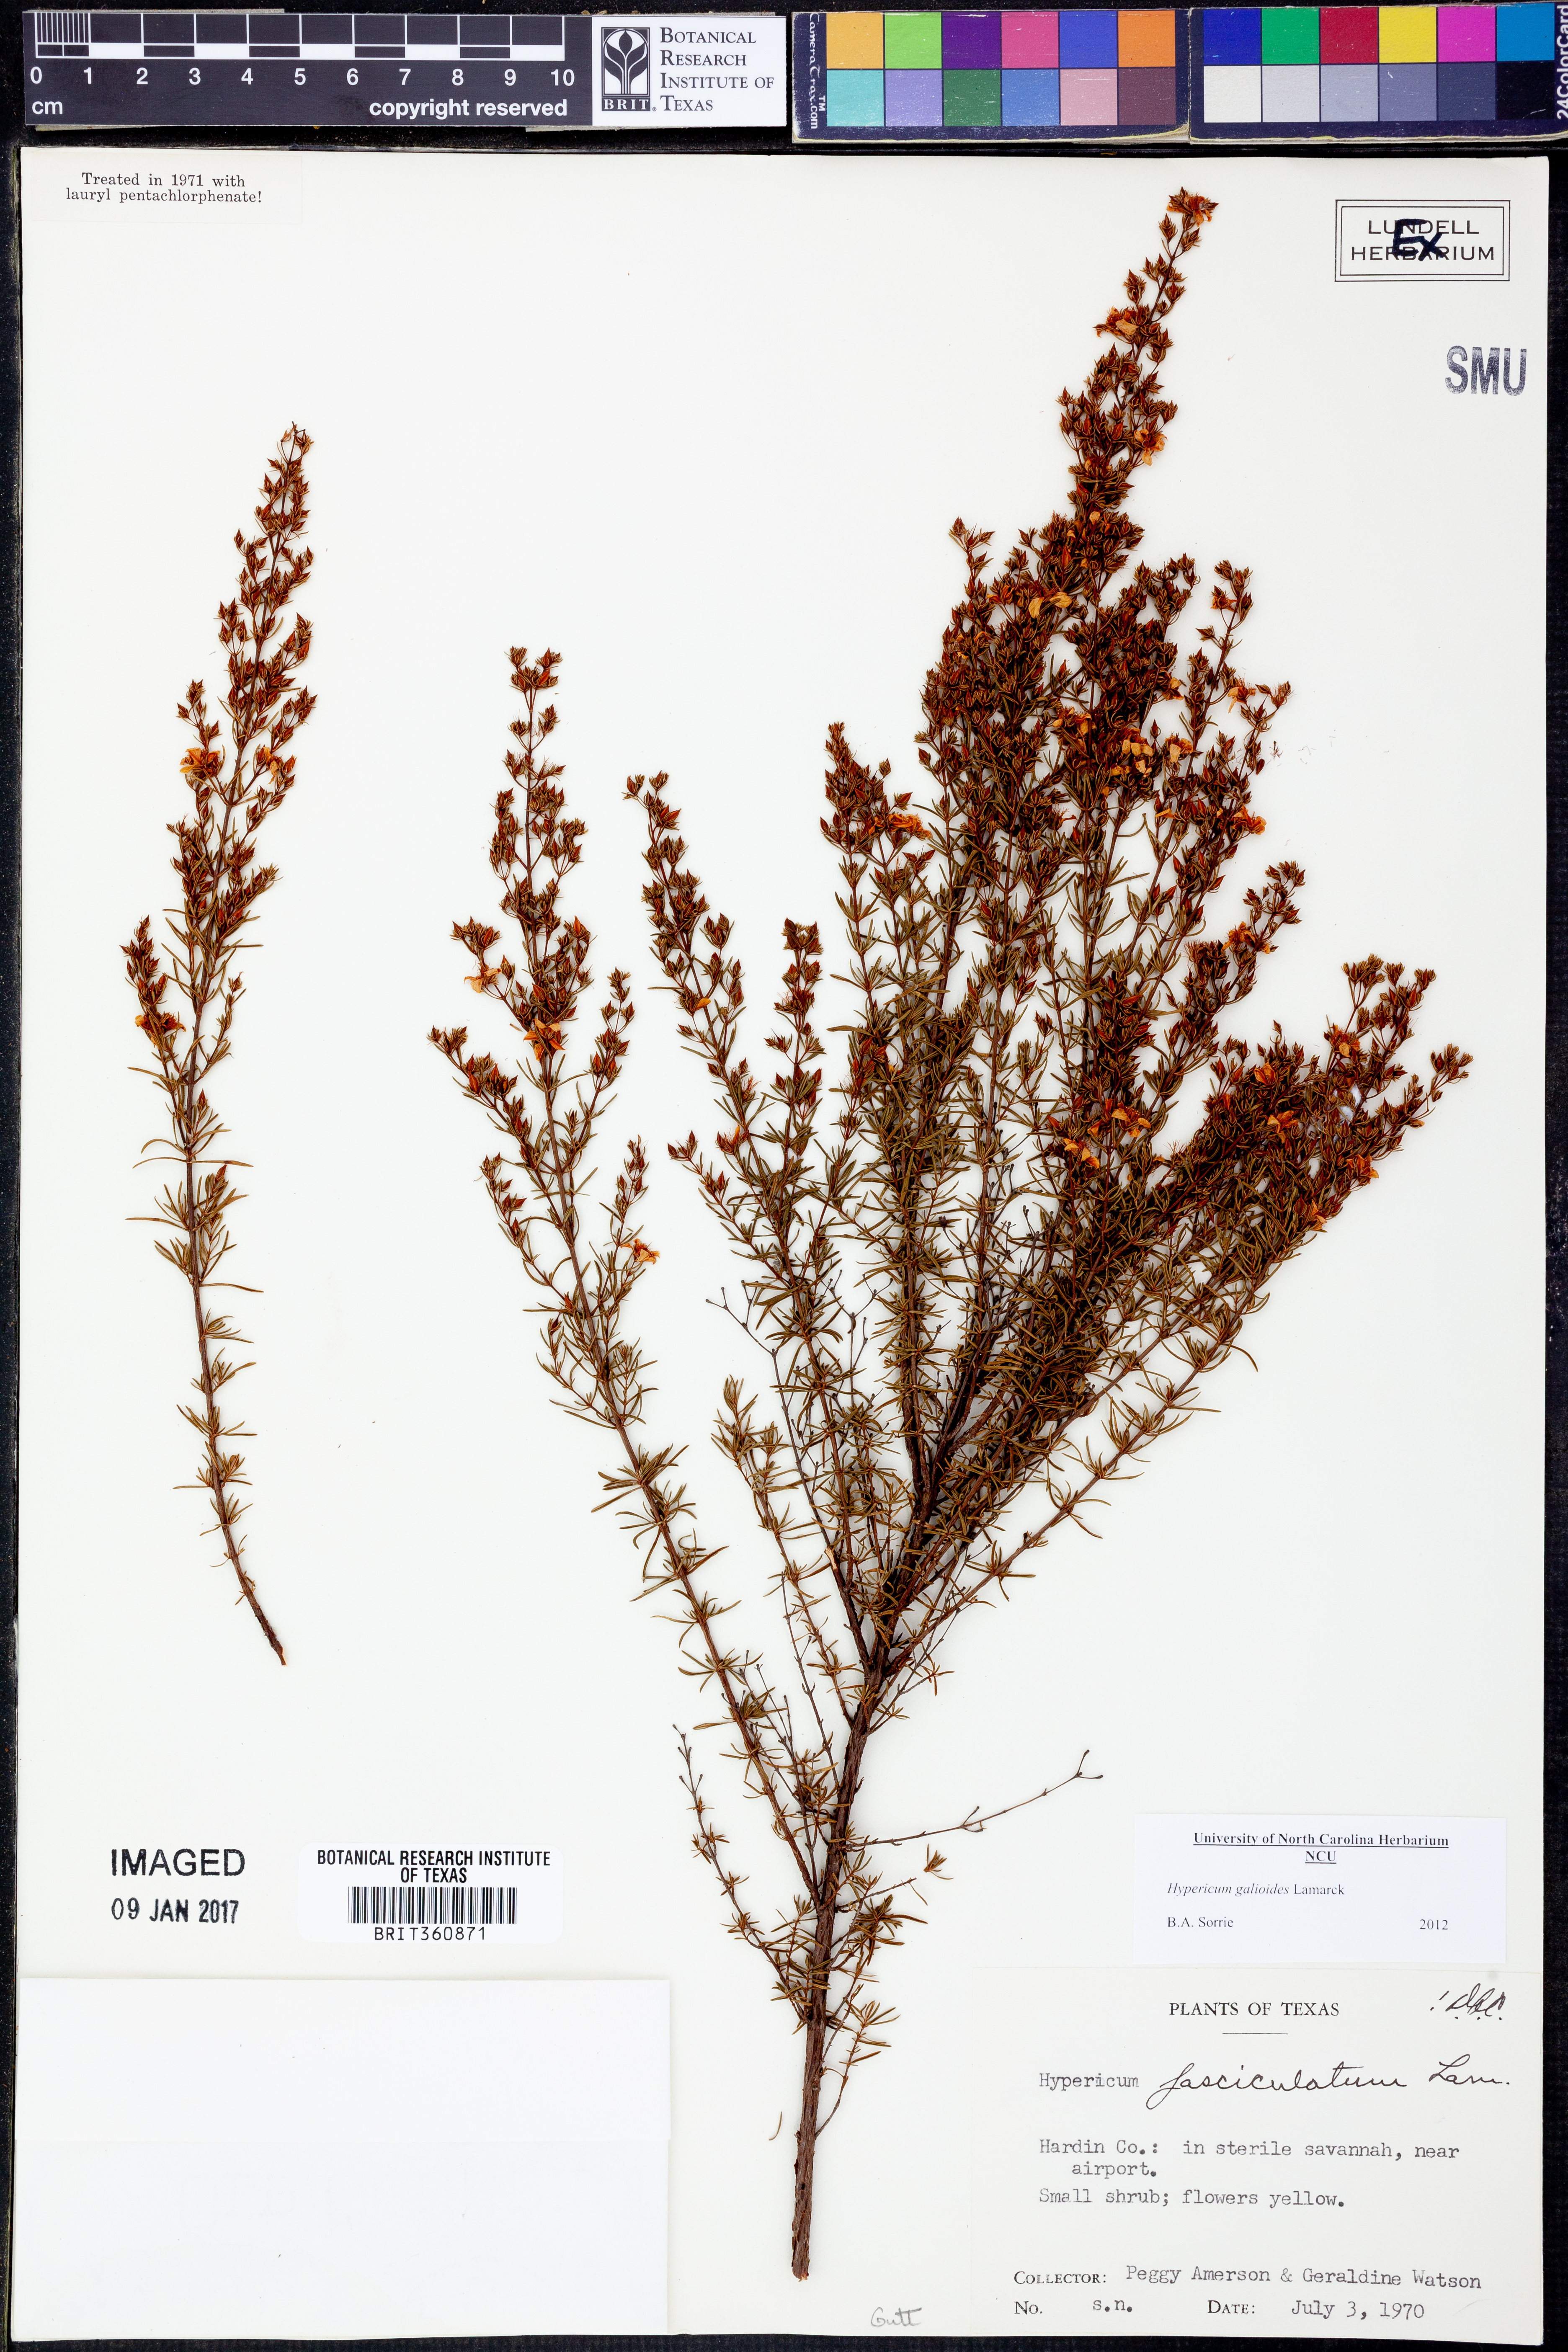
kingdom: Plantae
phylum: Tracheophyta
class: Magnoliopsida
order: Malpighiales
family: Hypericaceae
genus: Hypericum
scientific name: Hypericum galioides
